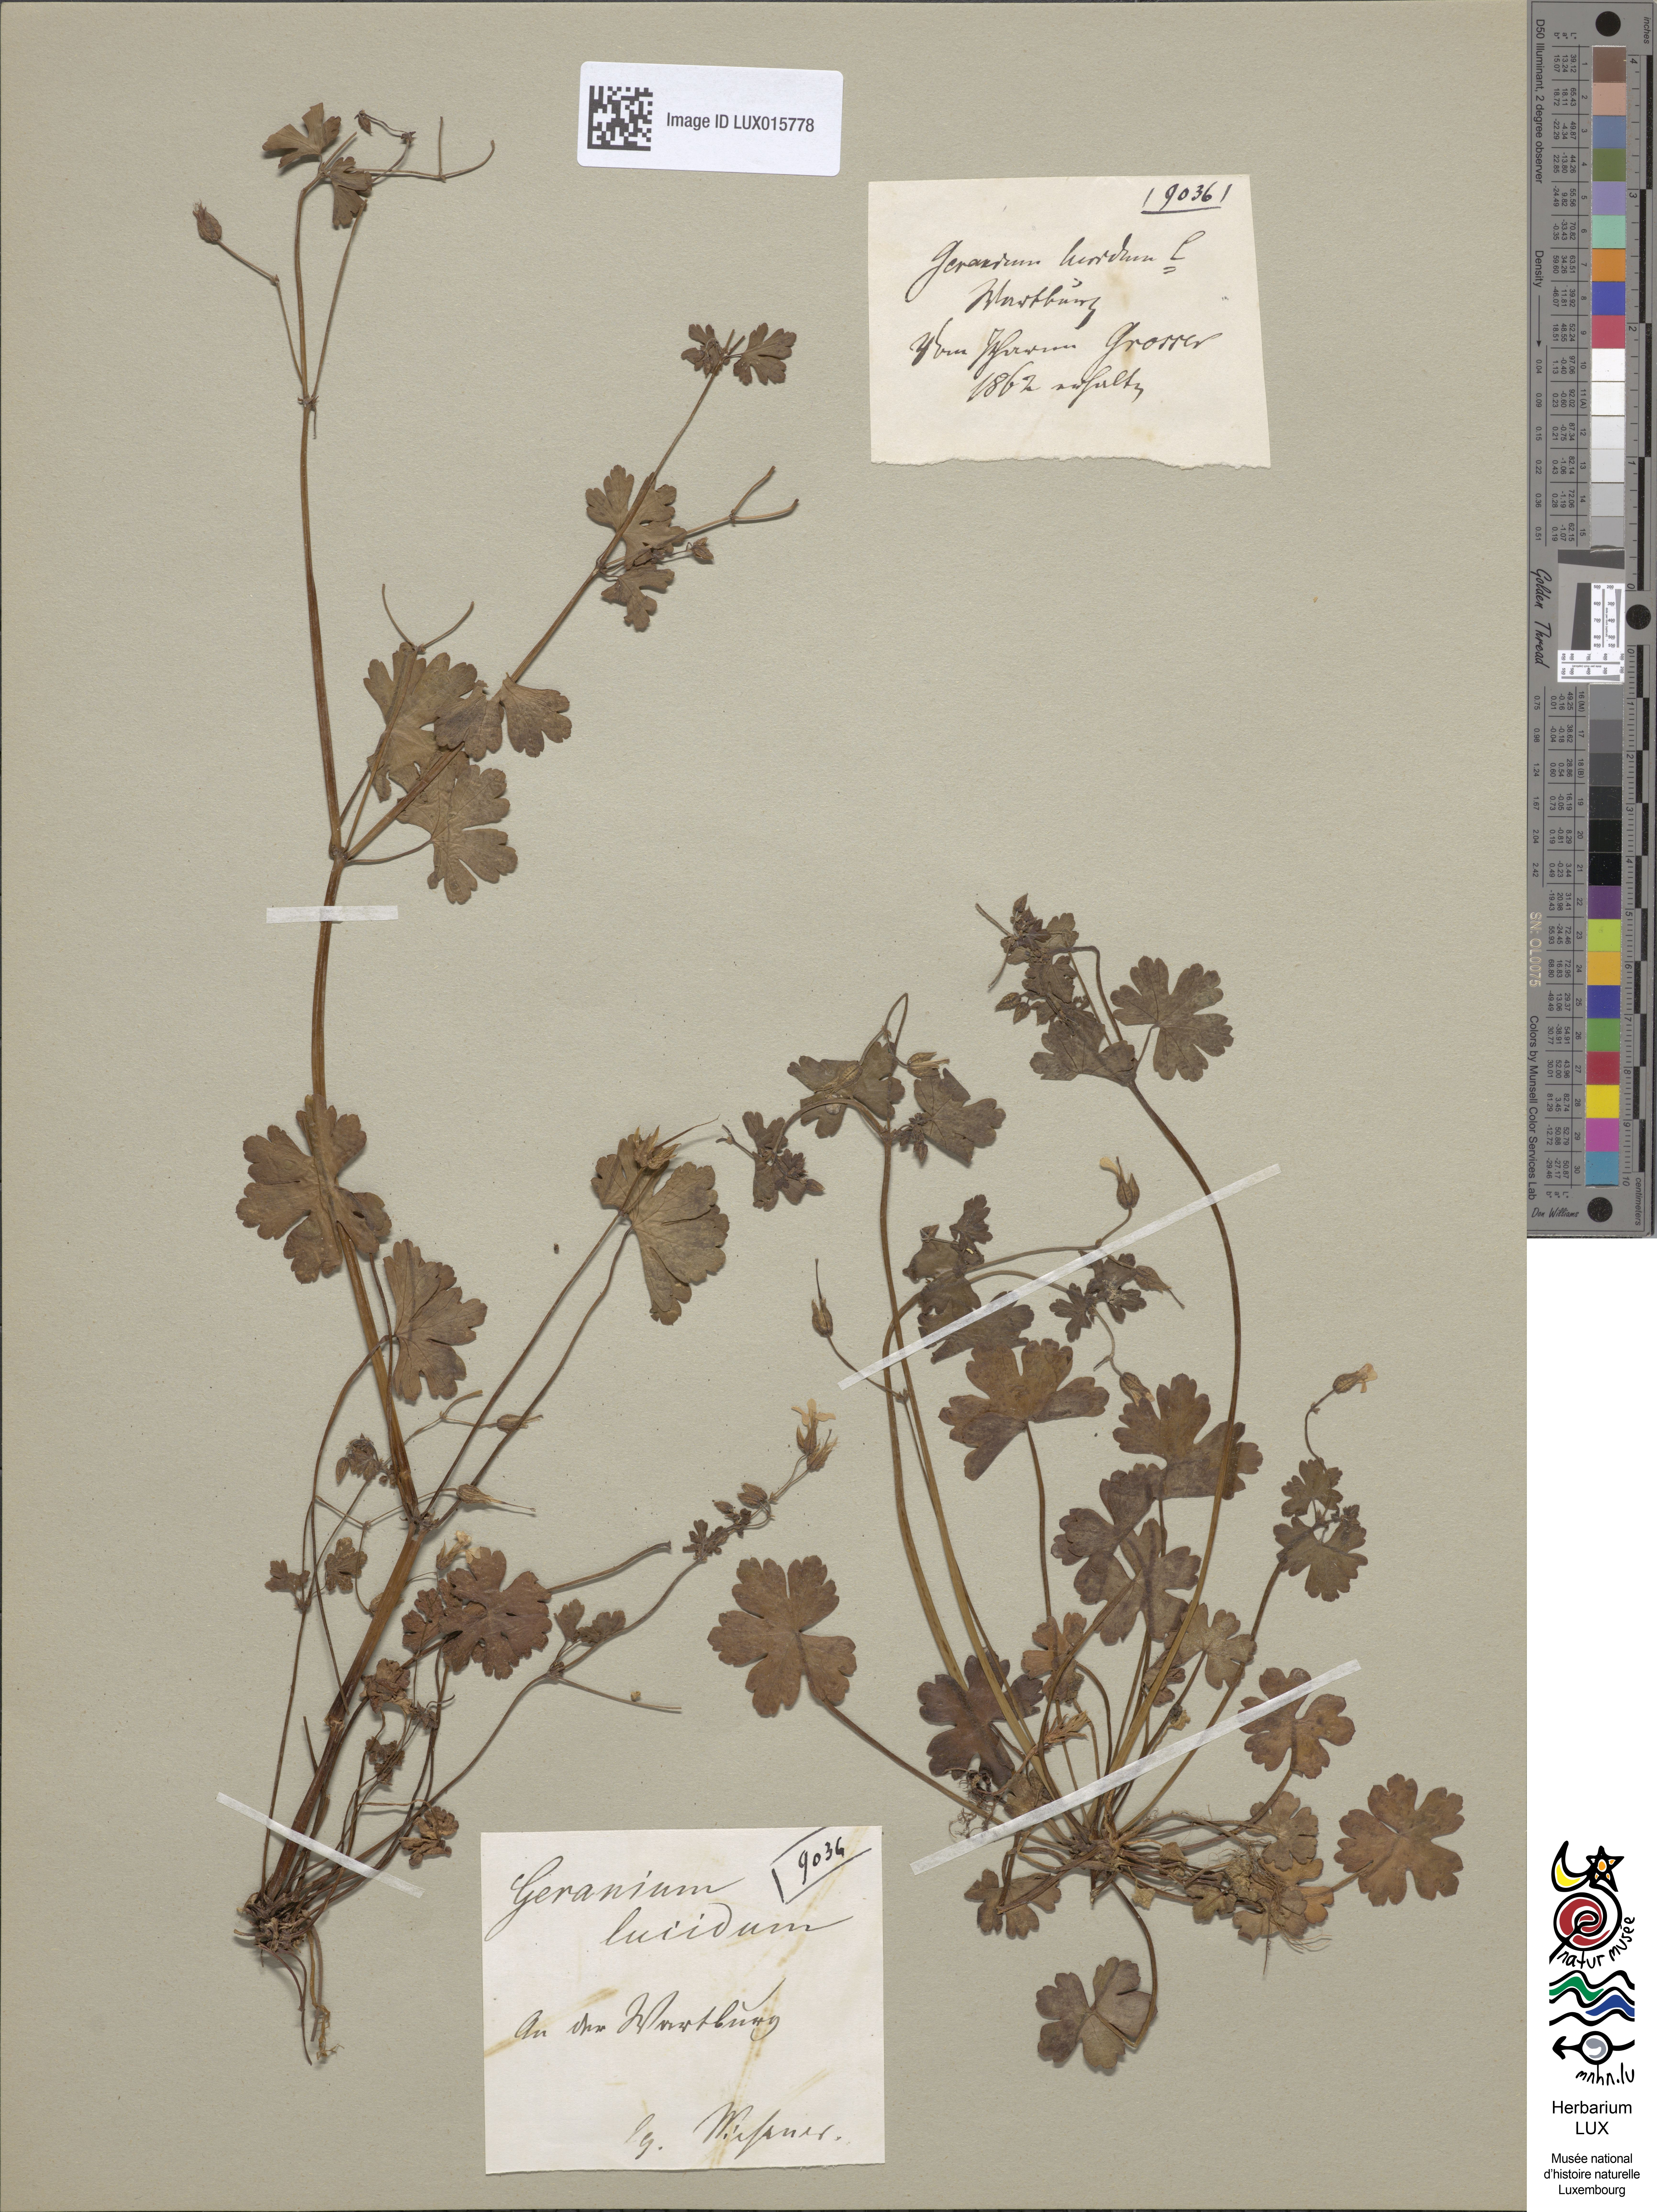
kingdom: Plantae
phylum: Tracheophyta
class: Magnoliopsida
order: Geraniales
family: Geraniaceae
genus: Geranium
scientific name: Geranium lucidum
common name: Shining crane's-bill
